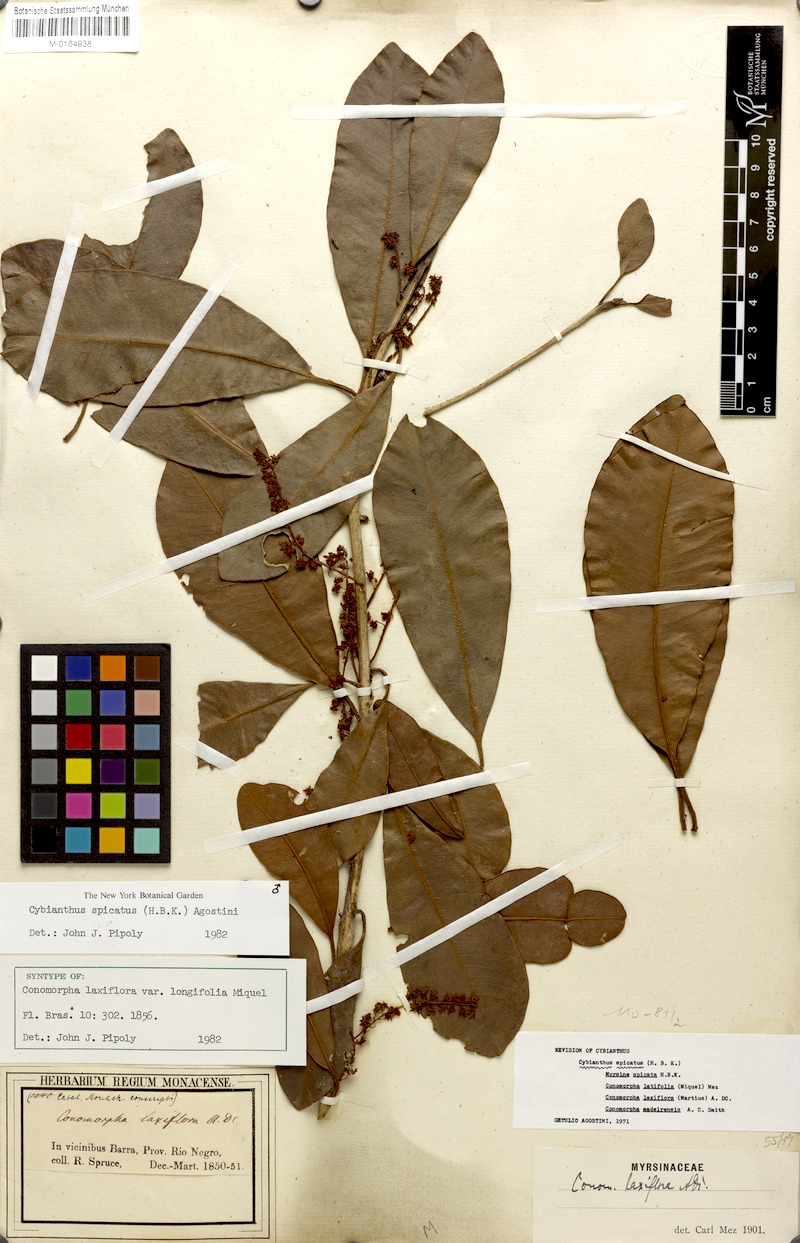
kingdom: Plantae
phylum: Tracheophyta
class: Magnoliopsida
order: Ericales
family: Primulaceae
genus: Cybianthus
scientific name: Cybianthus spicatus
